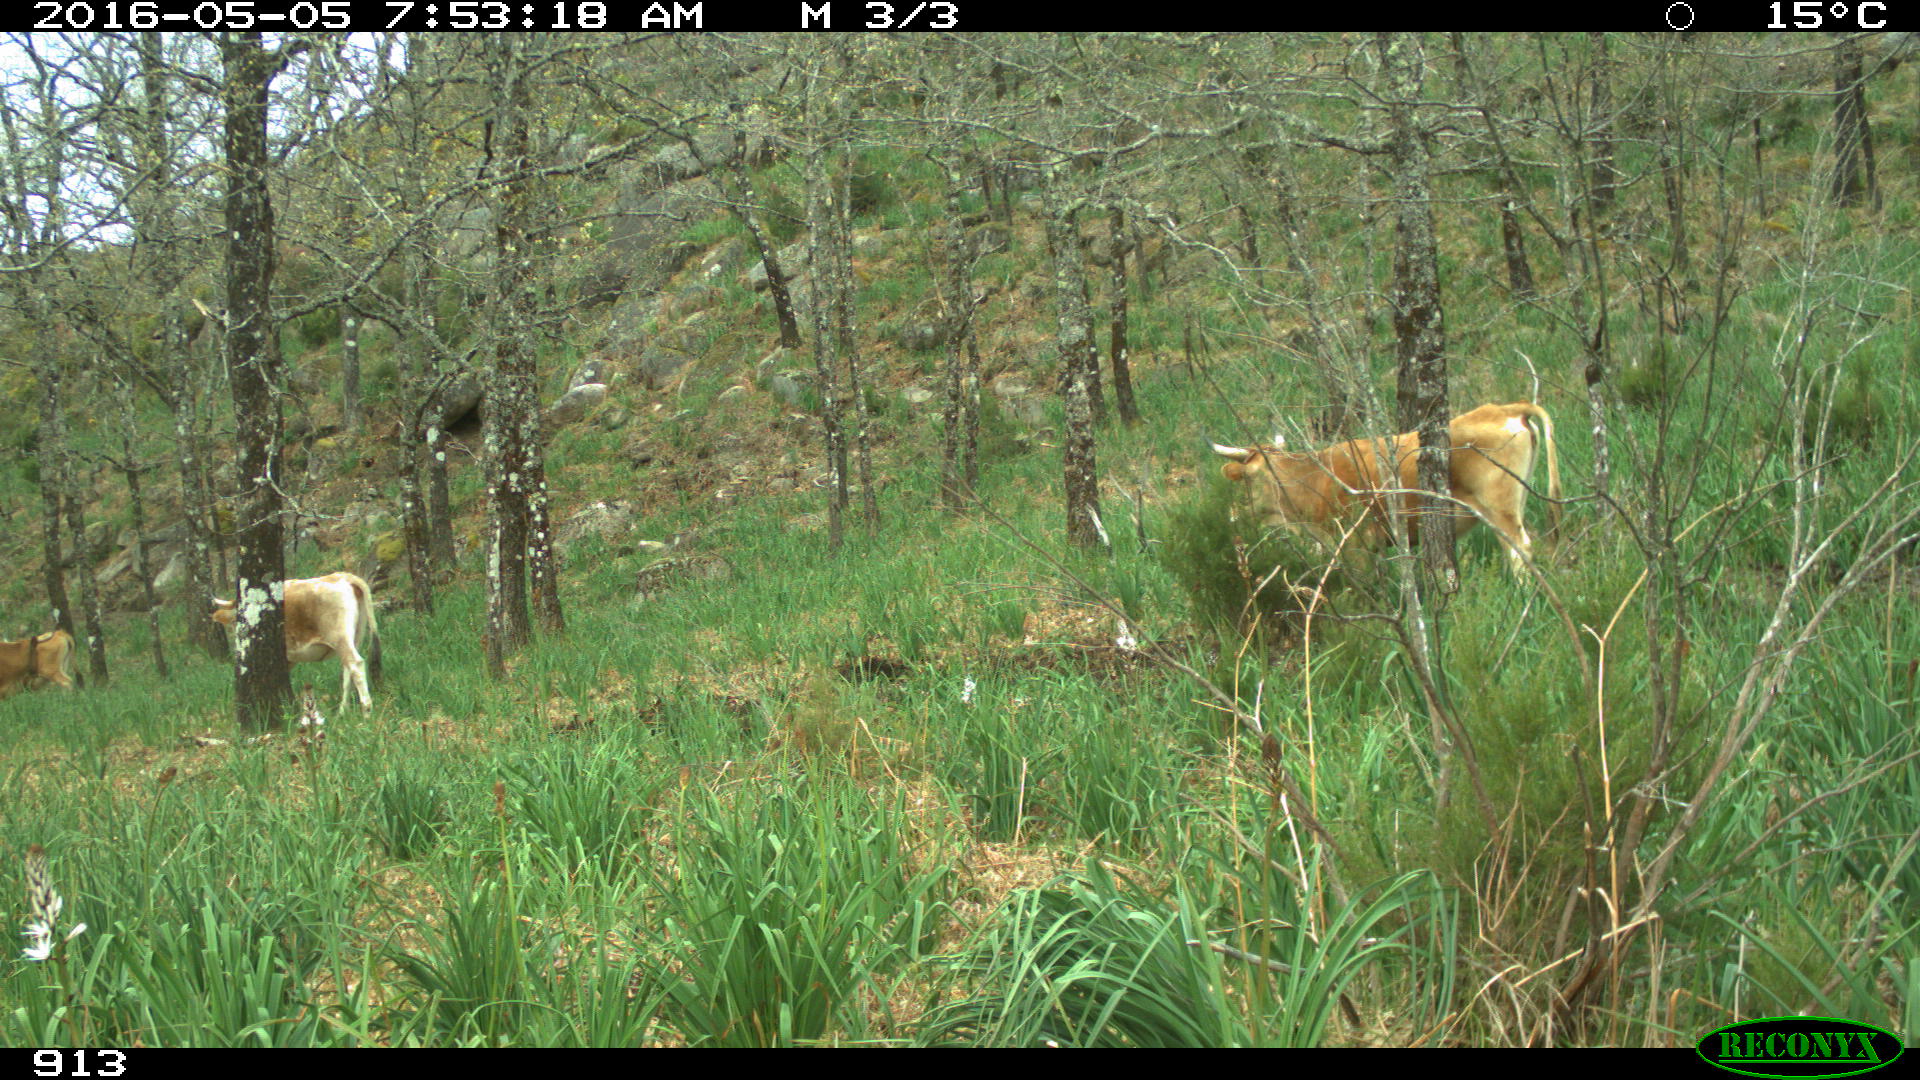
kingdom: Animalia
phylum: Chordata
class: Mammalia
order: Artiodactyla
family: Bovidae
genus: Bos
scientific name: Bos taurus
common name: Domesticated cattle
